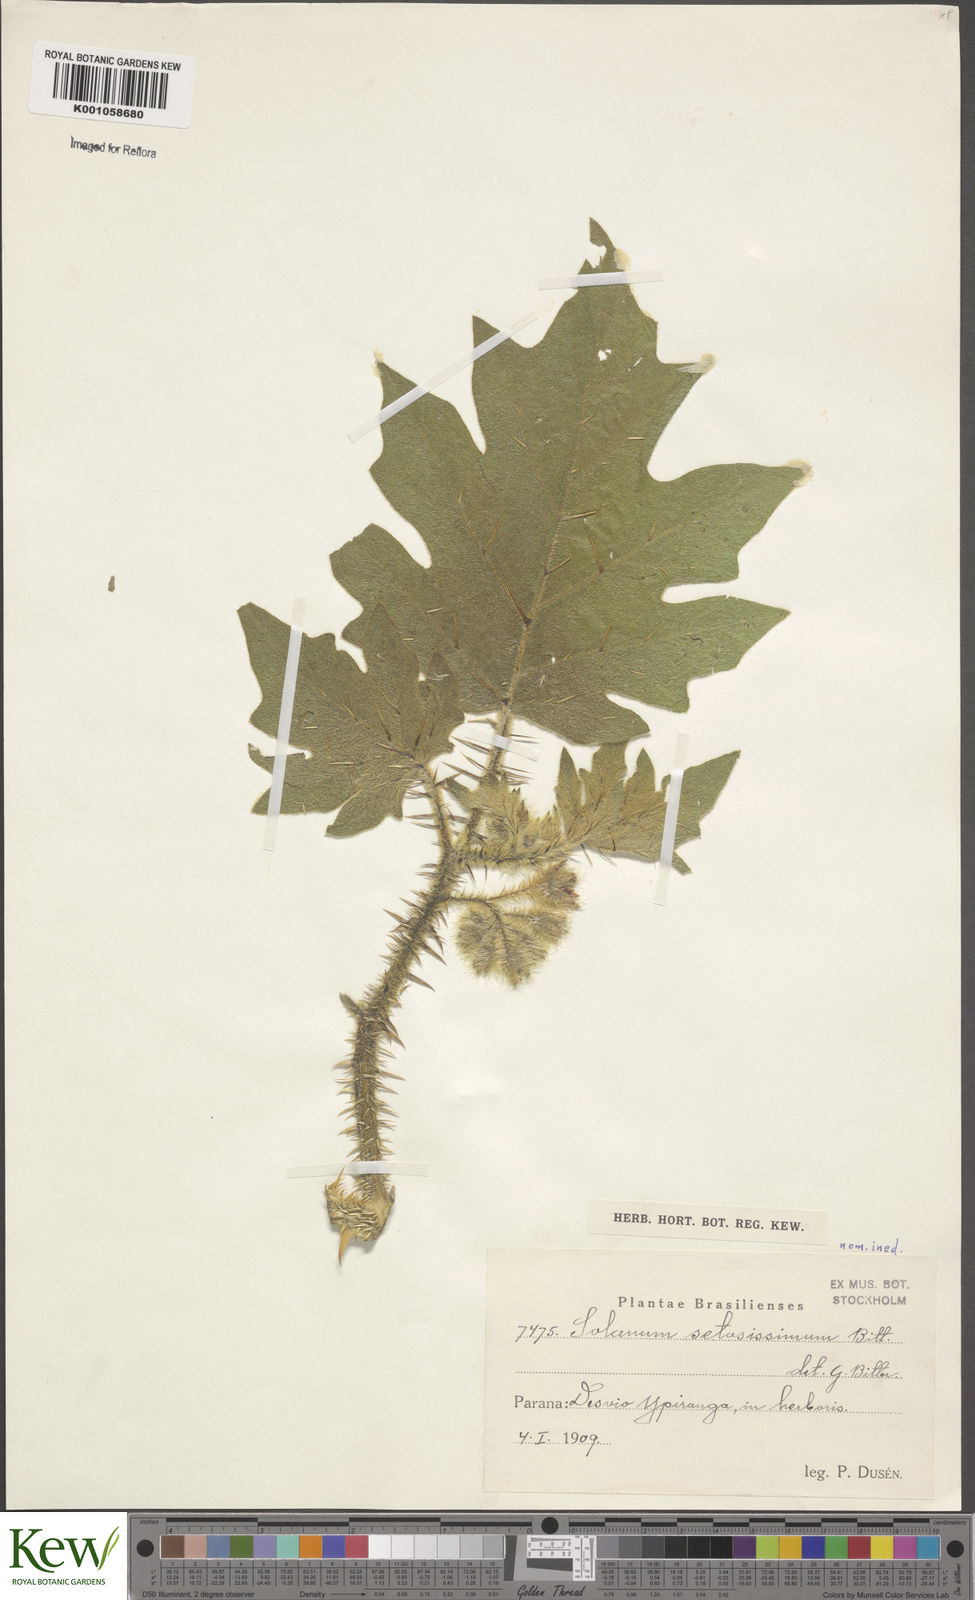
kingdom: Plantae
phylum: Tracheophyta
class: Magnoliopsida
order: Solanales
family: Solanaceae
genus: Solanum
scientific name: Solanum setosissimum
